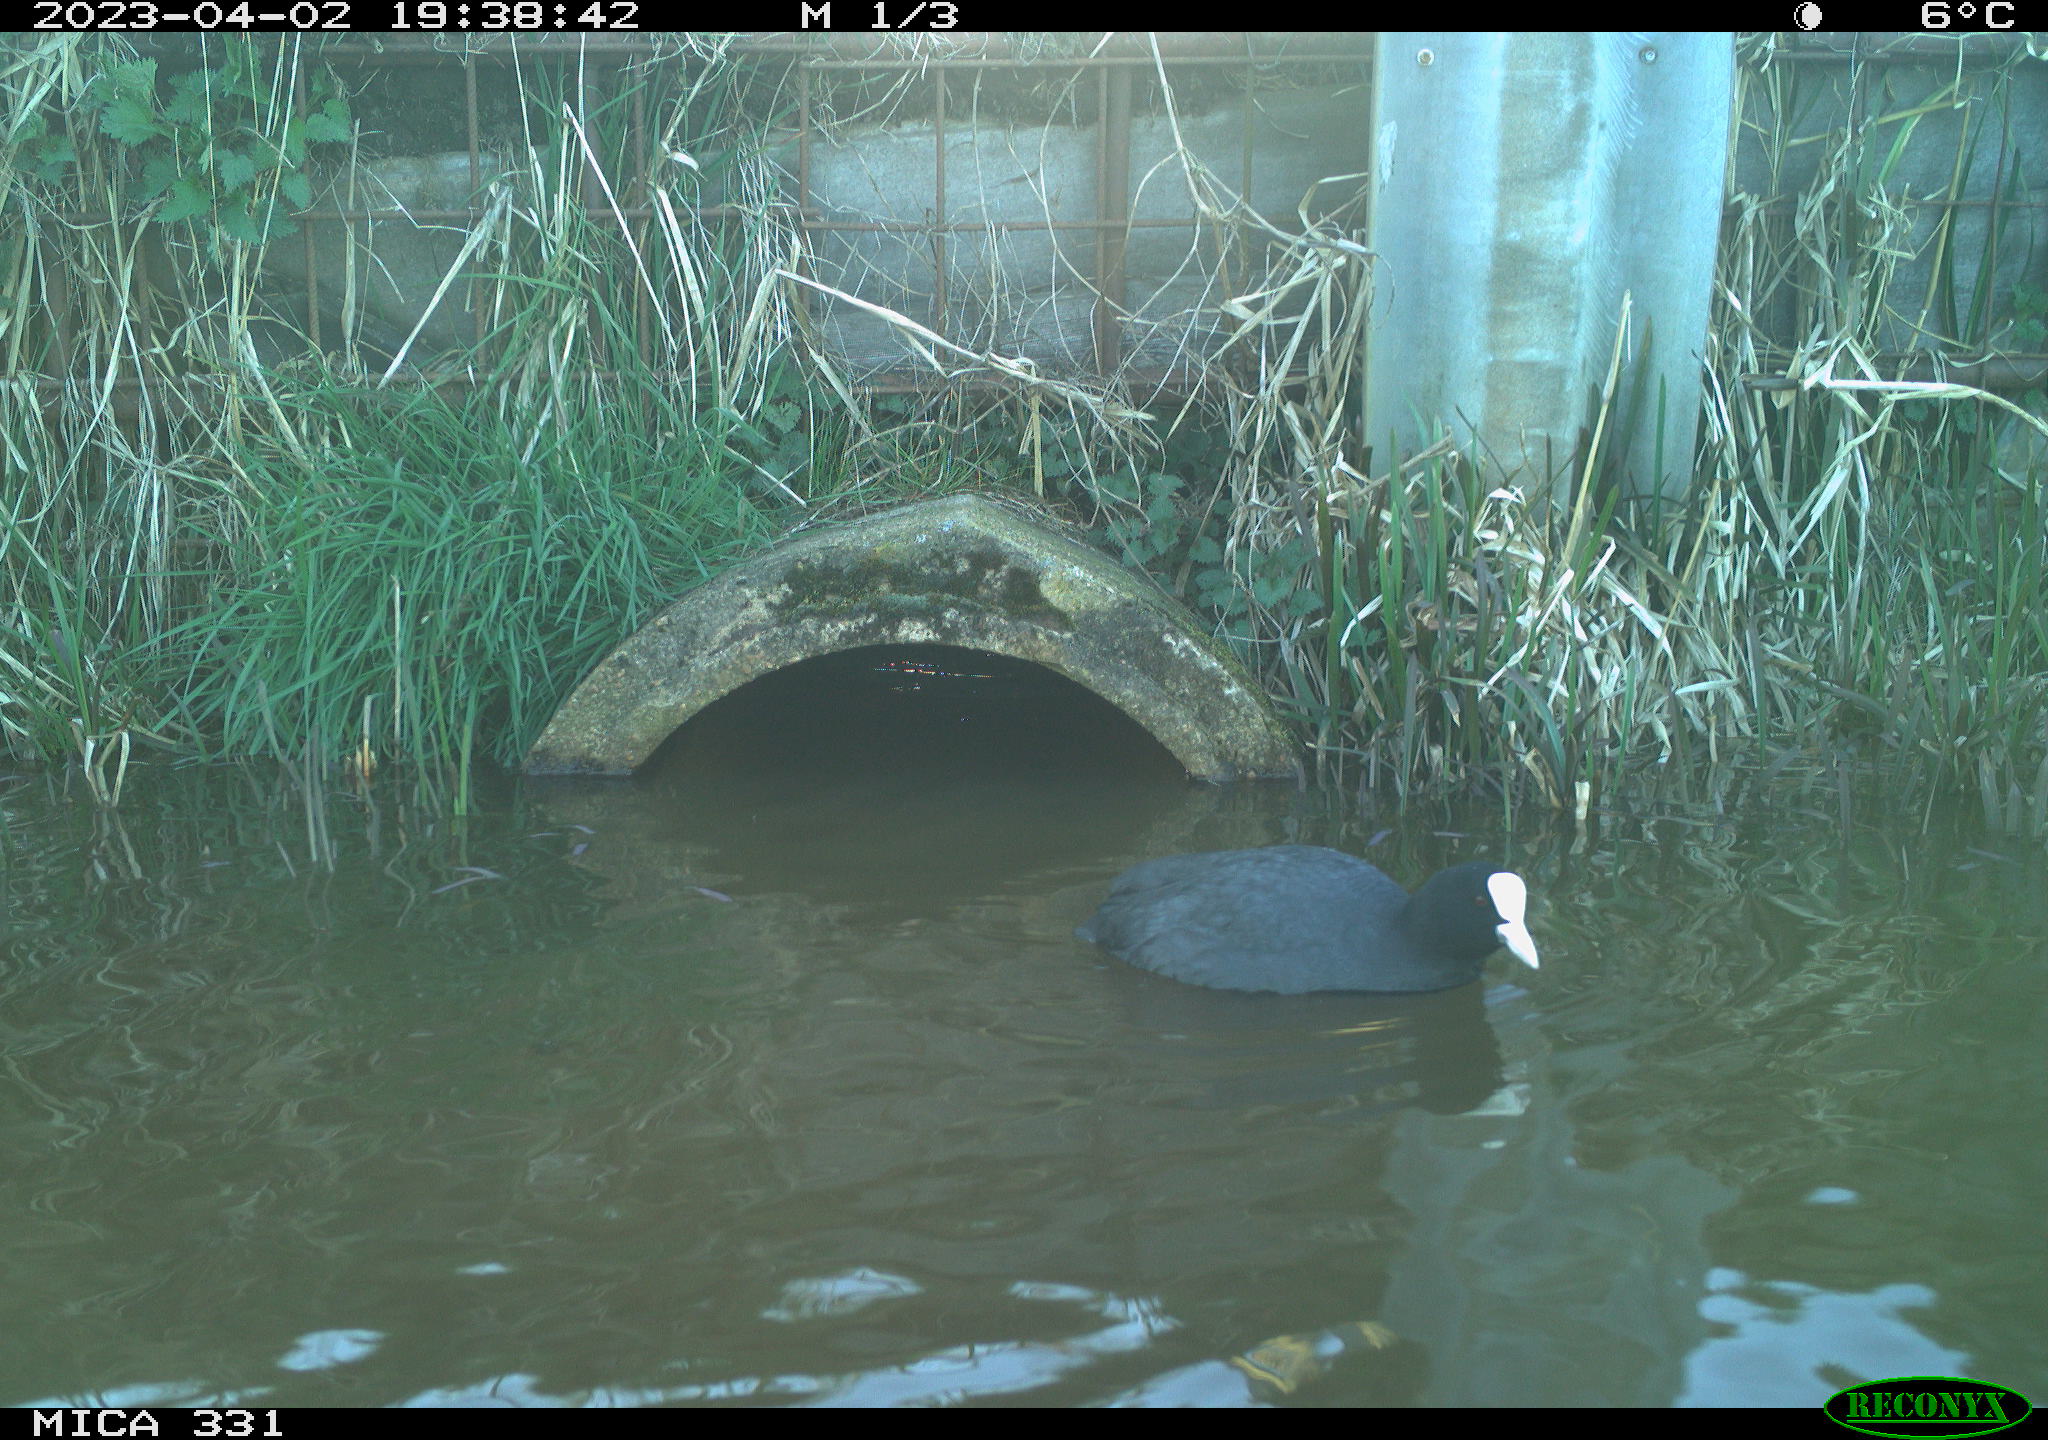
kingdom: Animalia
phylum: Chordata
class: Aves
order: Gruiformes
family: Rallidae
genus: Fulica
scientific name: Fulica atra
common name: Eurasian coot
